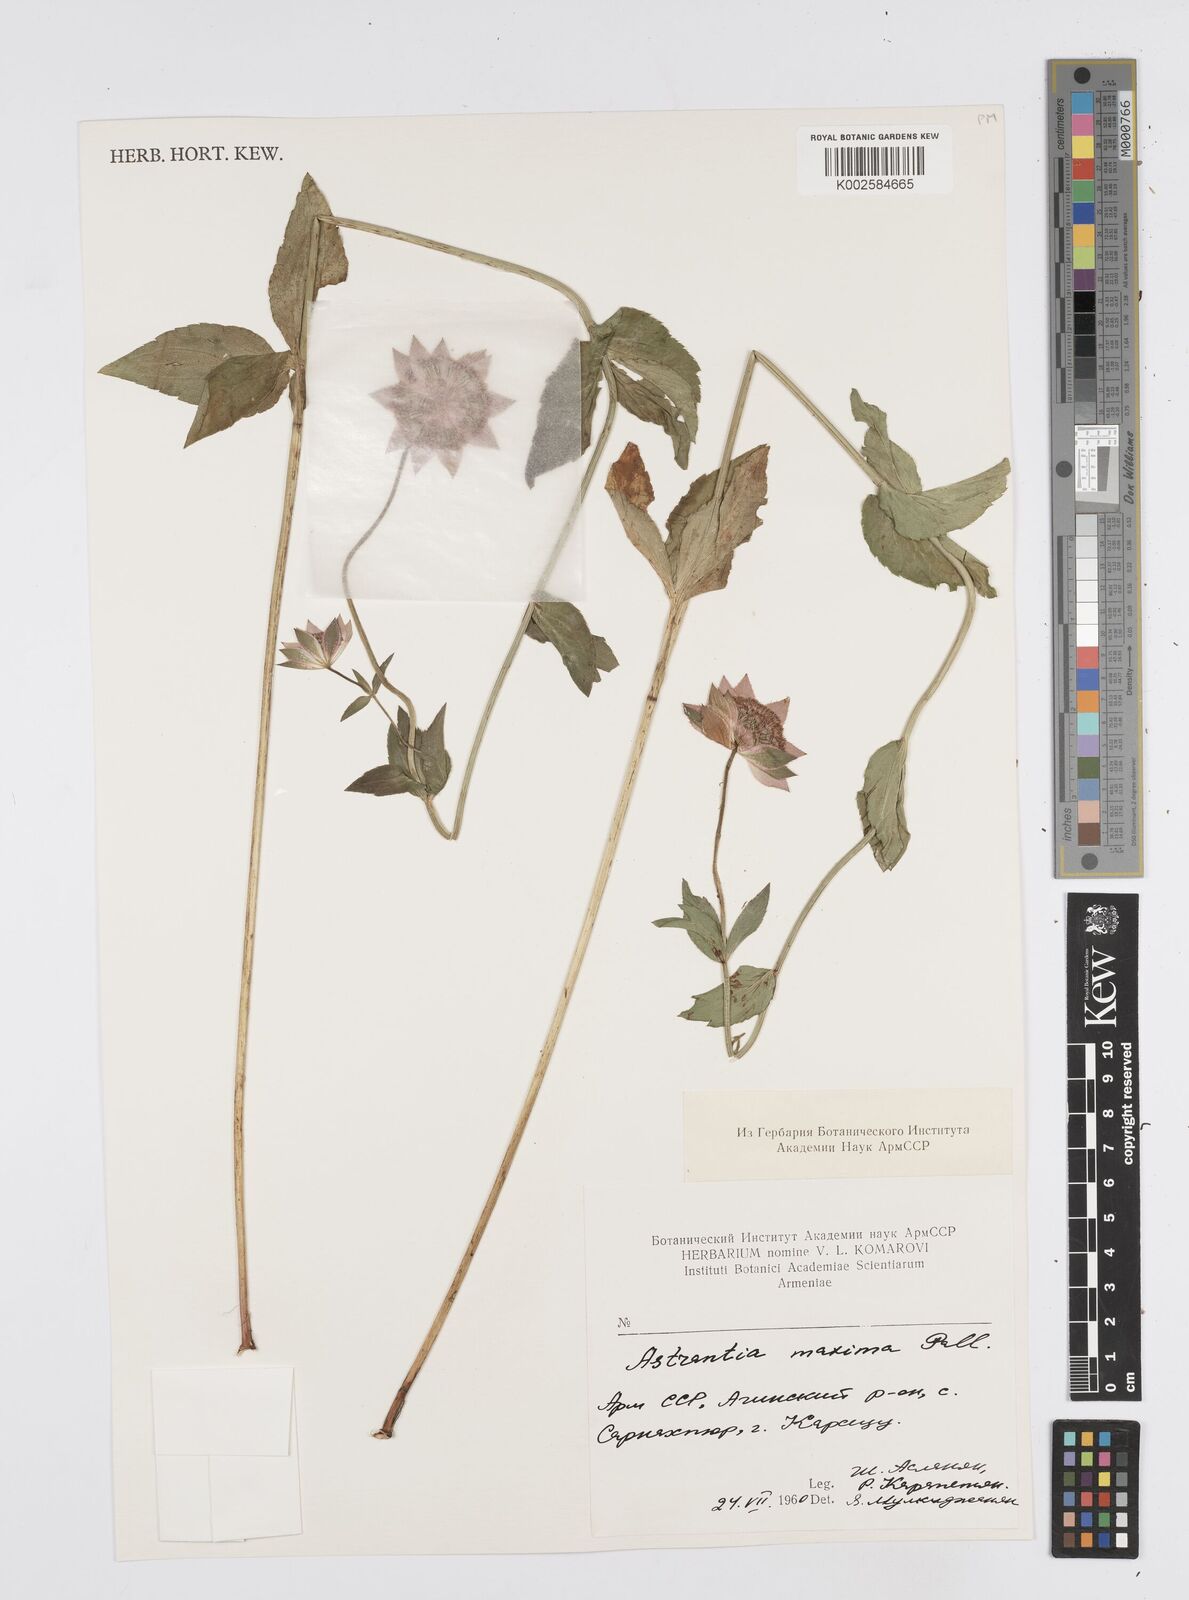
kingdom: Plantae
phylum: Tracheophyta
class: Magnoliopsida
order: Apiales
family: Apiaceae
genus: Astrantia
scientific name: Astrantia maxima
